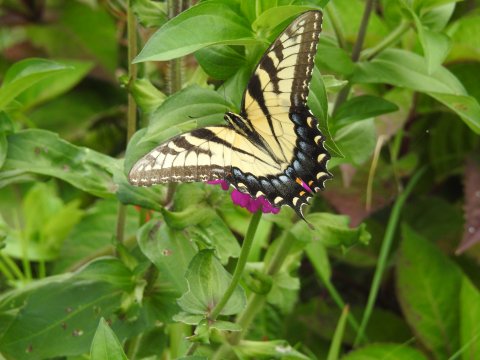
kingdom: Animalia
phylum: Arthropoda
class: Insecta
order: Lepidoptera
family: Papilionidae
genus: Pterourus
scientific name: Pterourus glaucus
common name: Eastern Tiger Swallowtail
